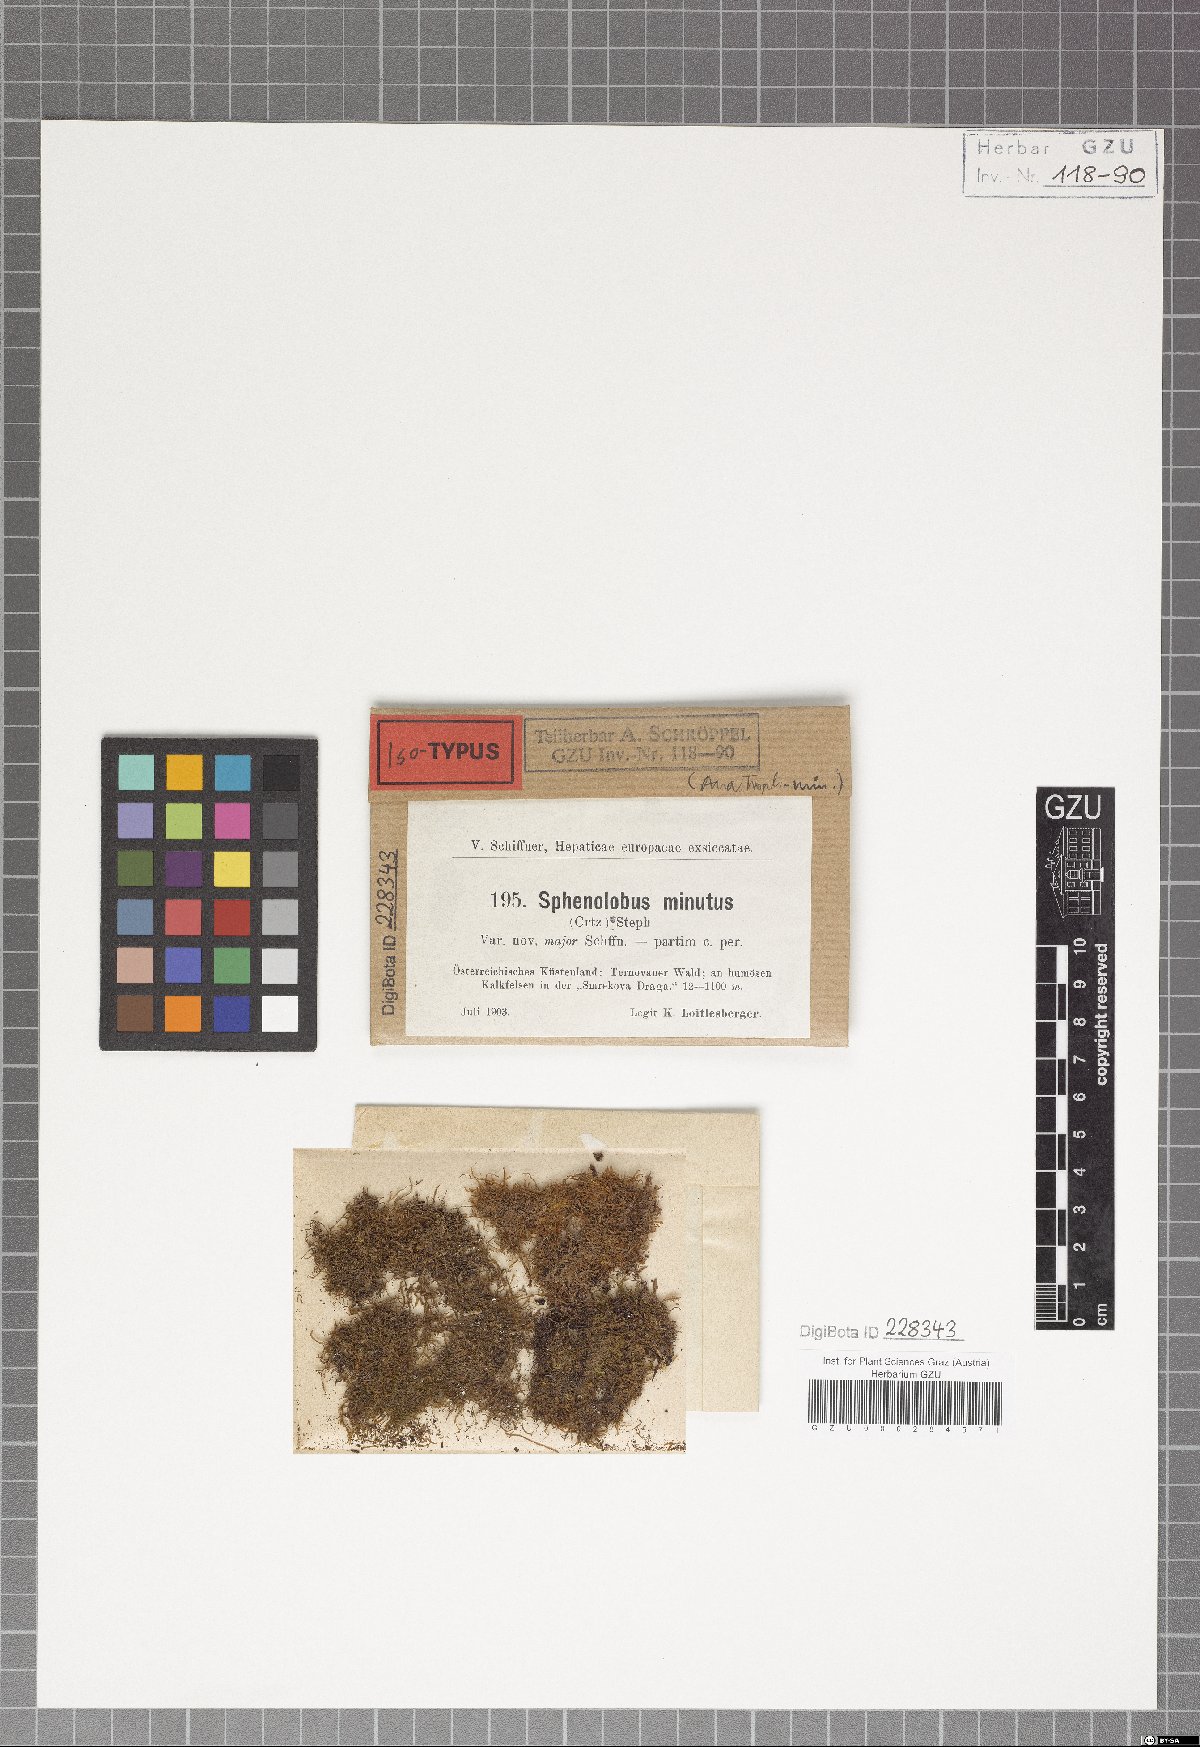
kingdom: Plantae
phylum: Marchantiophyta
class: Jungermanniopsida
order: Jungermanniales
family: Anastrophyllaceae
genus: Sphenolobus
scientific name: Sphenolobus minutus
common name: Comb notchwort
